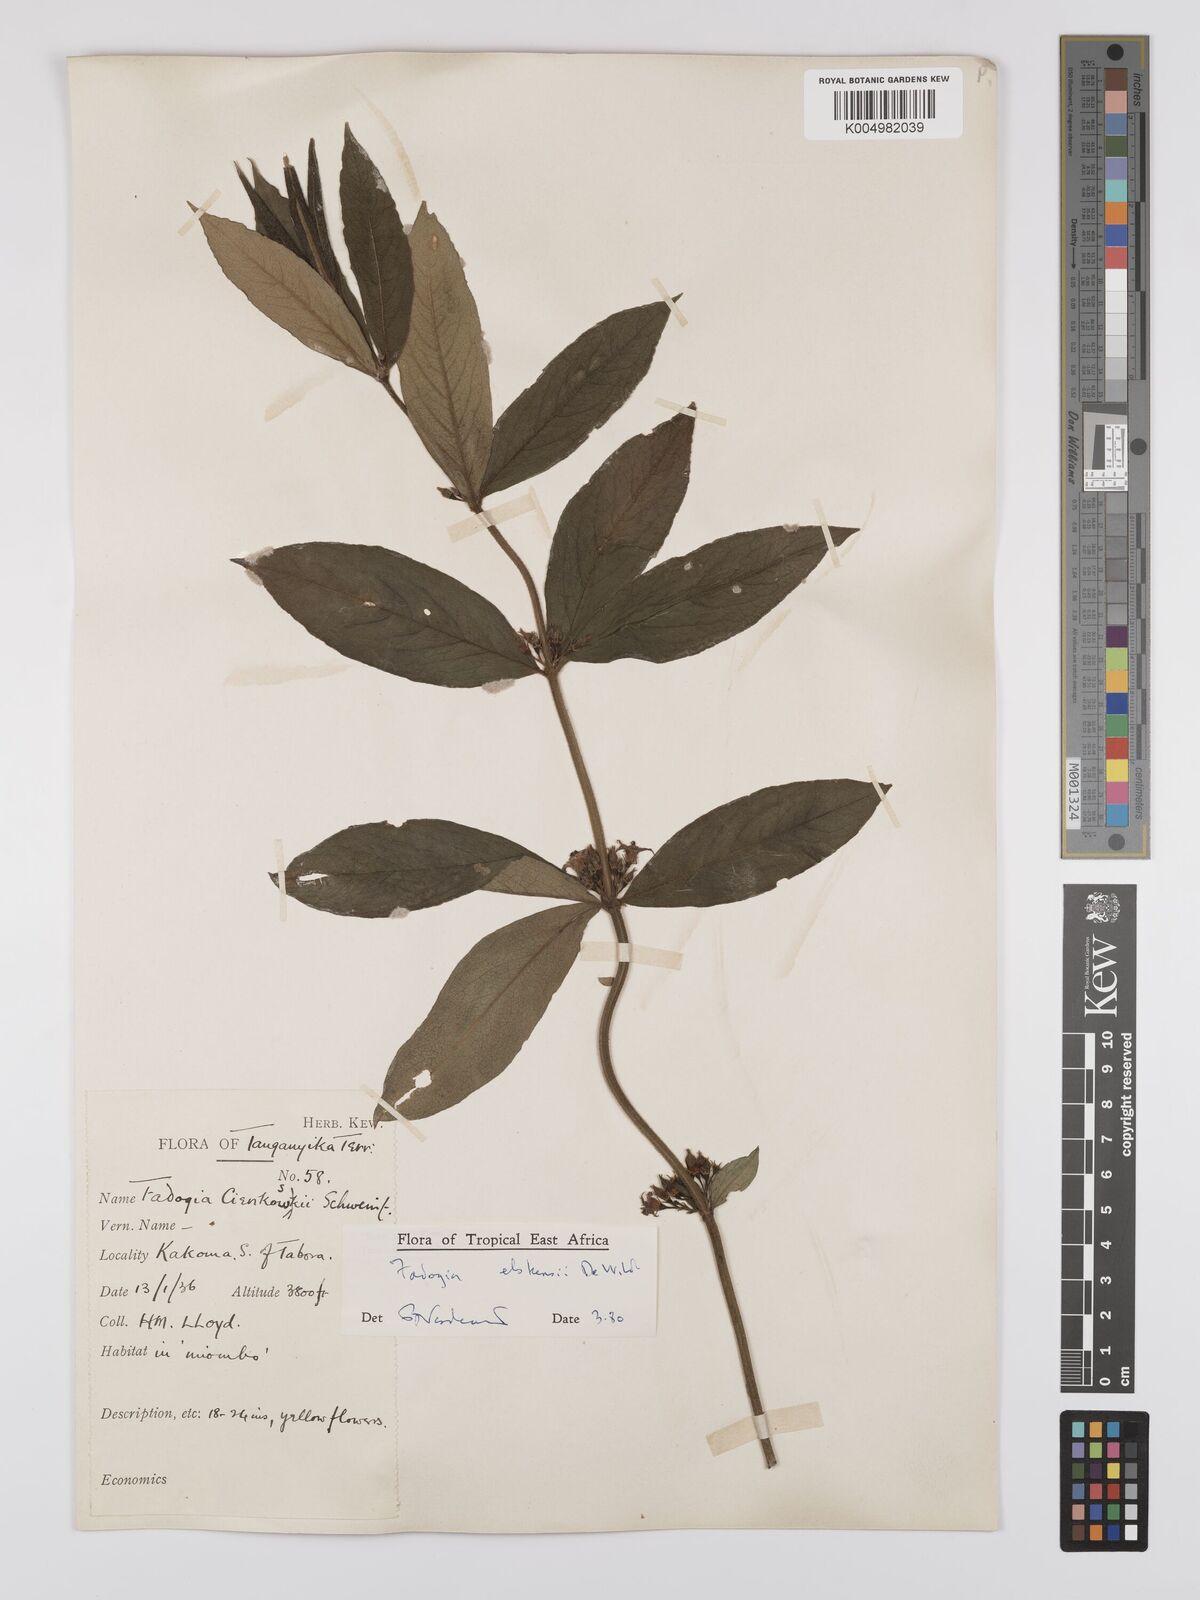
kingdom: Plantae
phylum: Tracheophyta
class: Magnoliopsida
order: Gentianales
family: Rubiaceae
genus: Fadogia
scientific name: Fadogia elskensii
